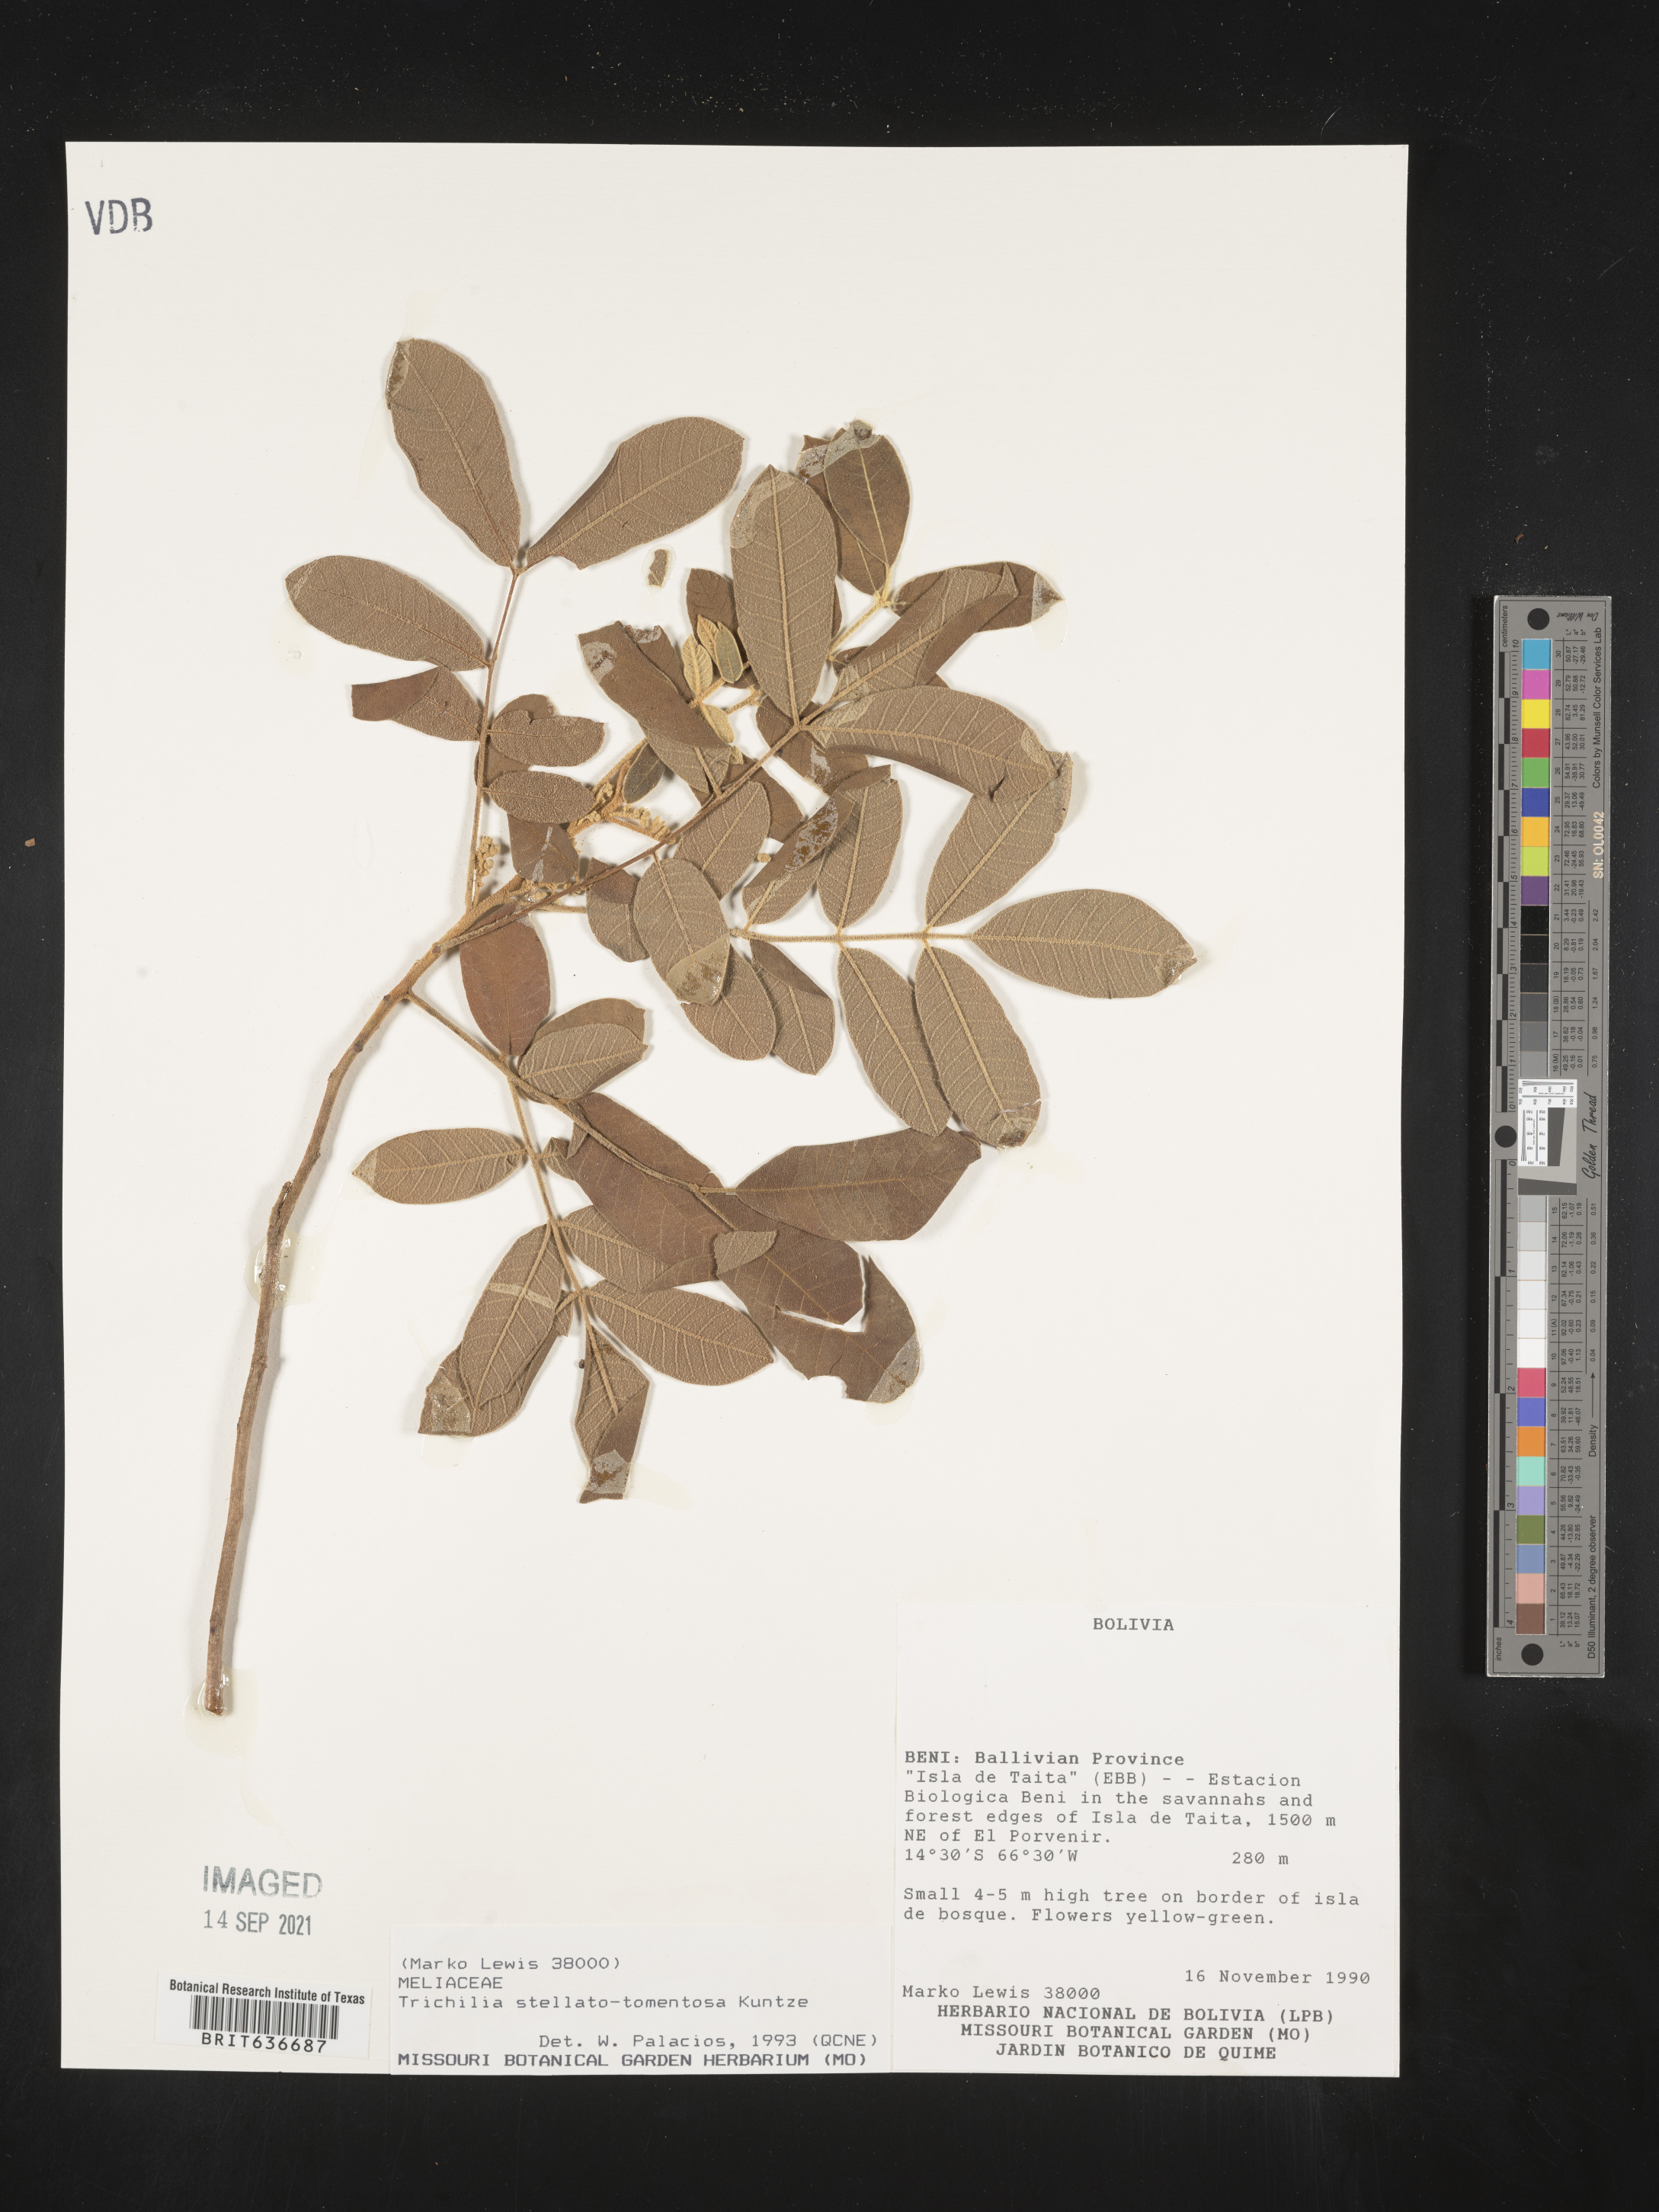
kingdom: Plantae
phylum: Tracheophyta
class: Magnoliopsida
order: Sapindales
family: Meliaceae
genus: Trichilia
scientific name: Trichilia
